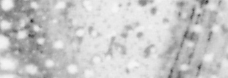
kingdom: Animalia
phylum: Chordata
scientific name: Chordata
